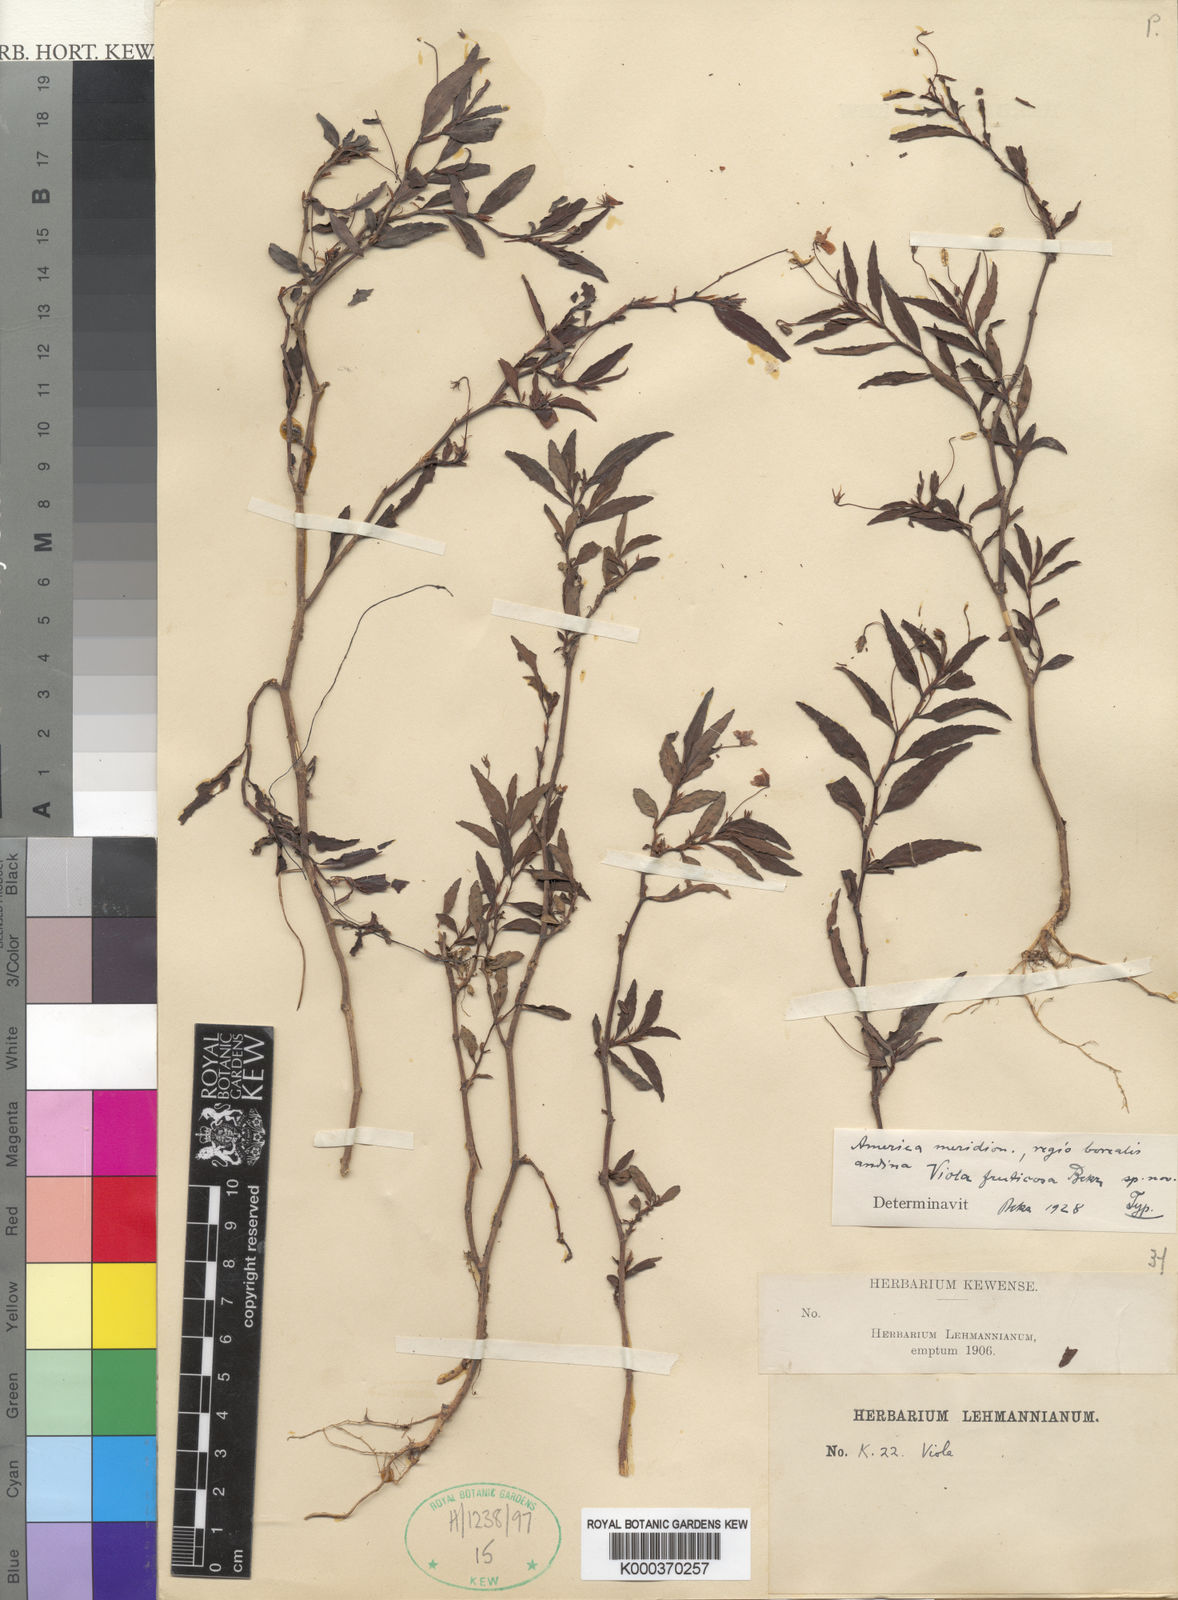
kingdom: Plantae
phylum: Tracheophyta
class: Magnoliopsida
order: Malpighiales
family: Violaceae
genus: Viola
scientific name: Viola stipularis
